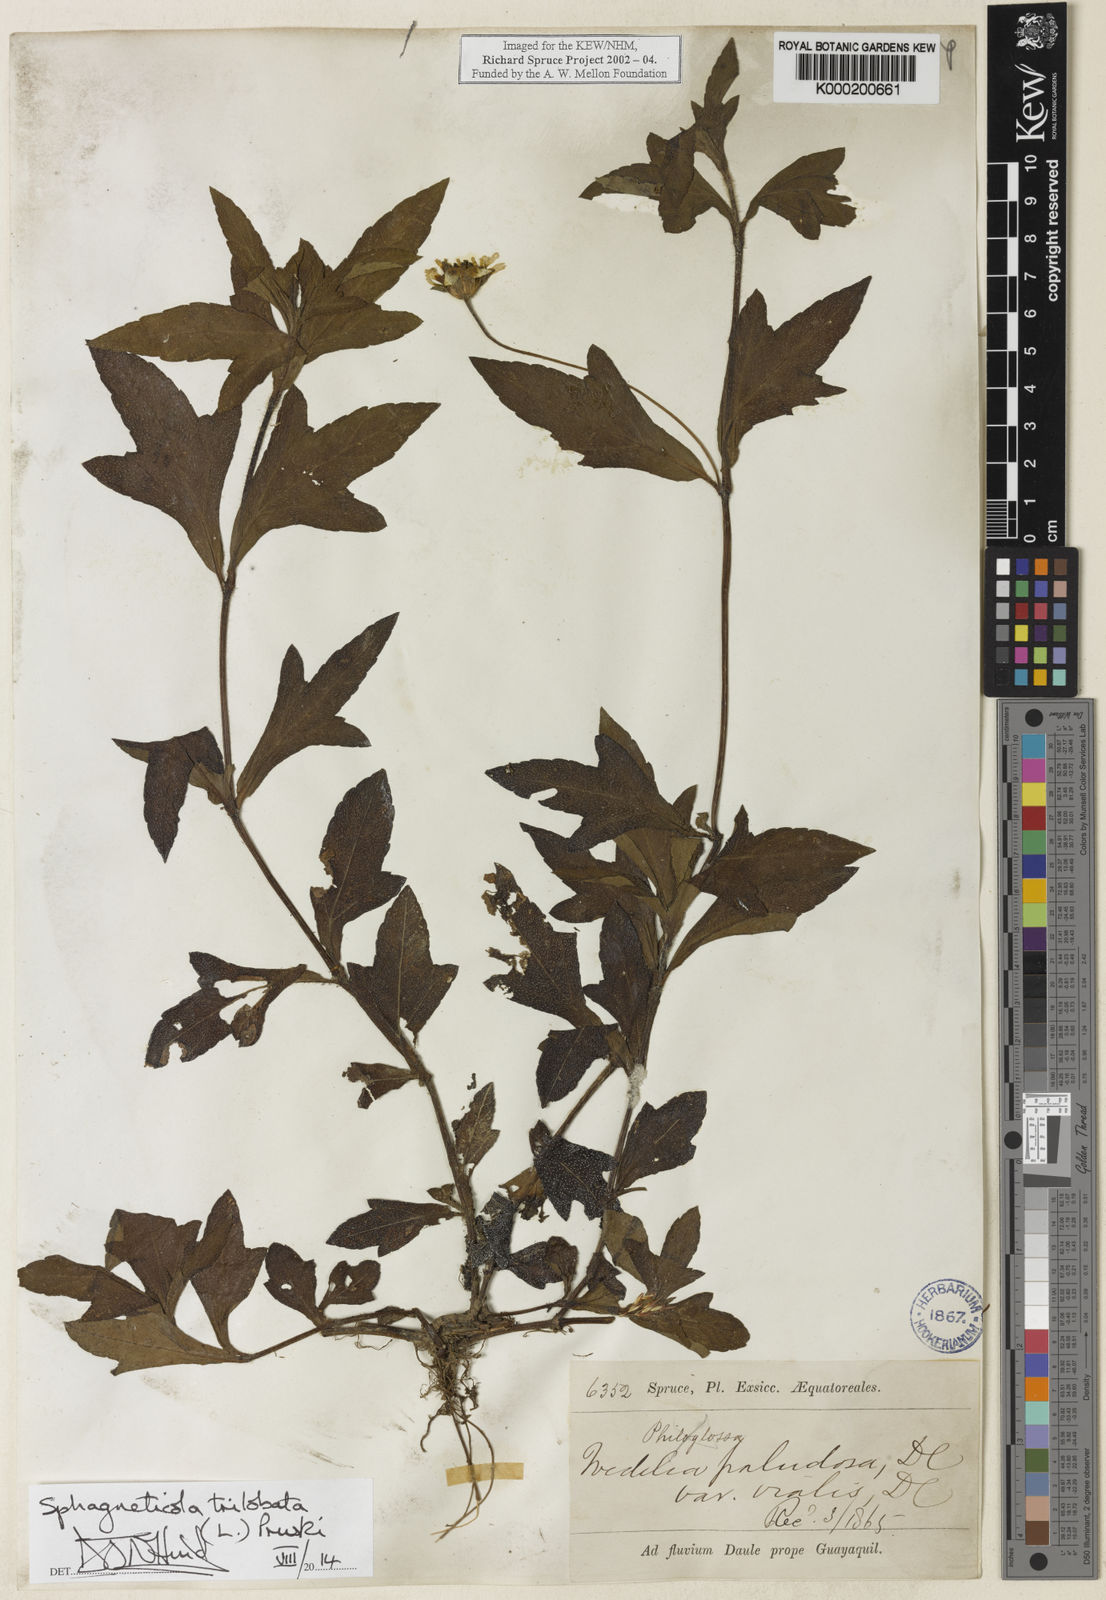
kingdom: Plantae
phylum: Tracheophyta
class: Magnoliopsida
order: Asterales
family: Asteraceae
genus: Sphagneticola
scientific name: Sphagneticola trilobata
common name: Bay biscayne creeping-oxeye
